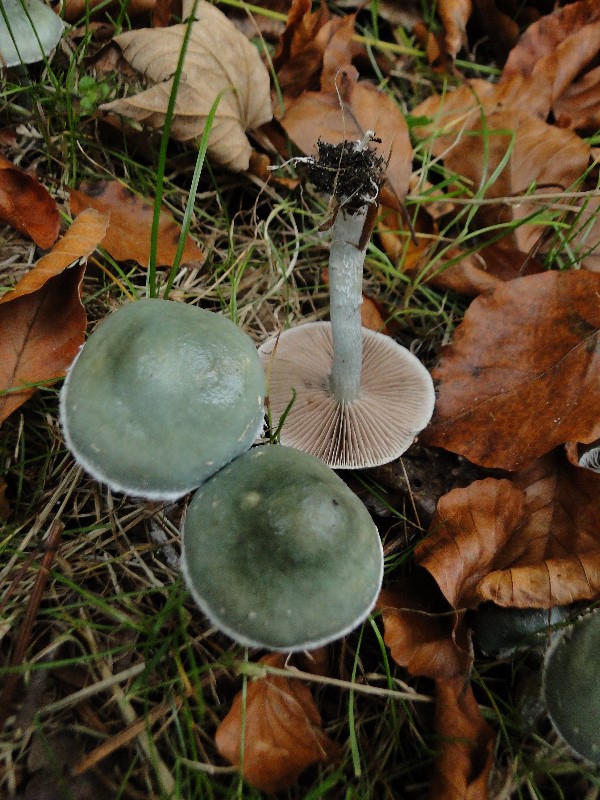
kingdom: Fungi
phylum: Basidiomycota
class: Agaricomycetes
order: Agaricales
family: Strophariaceae
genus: Stropharia
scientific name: Stropharia cyanea
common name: blågrøn bredblad
